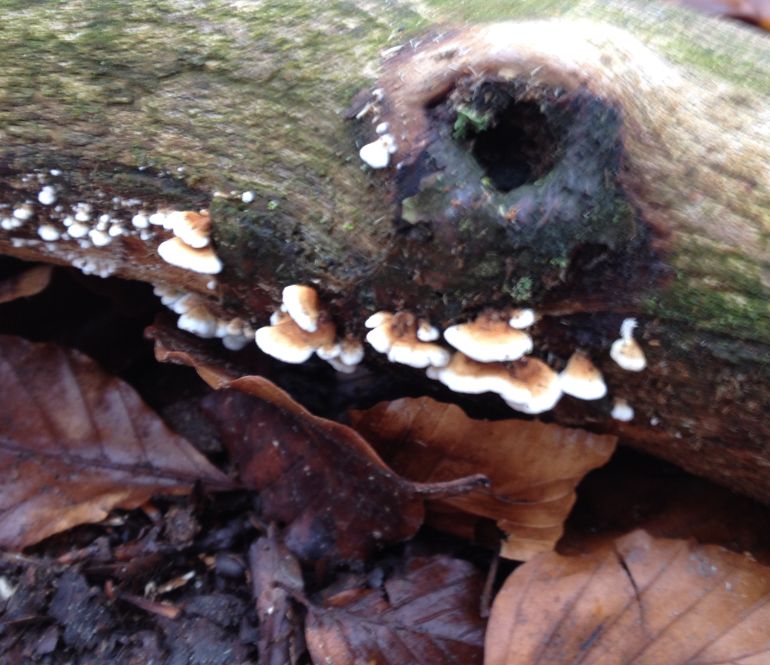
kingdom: Fungi
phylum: Basidiomycota
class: Agaricomycetes
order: Amylocorticiales
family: Amylocorticiaceae
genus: Plicaturopsis
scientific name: Plicaturopsis crispa
